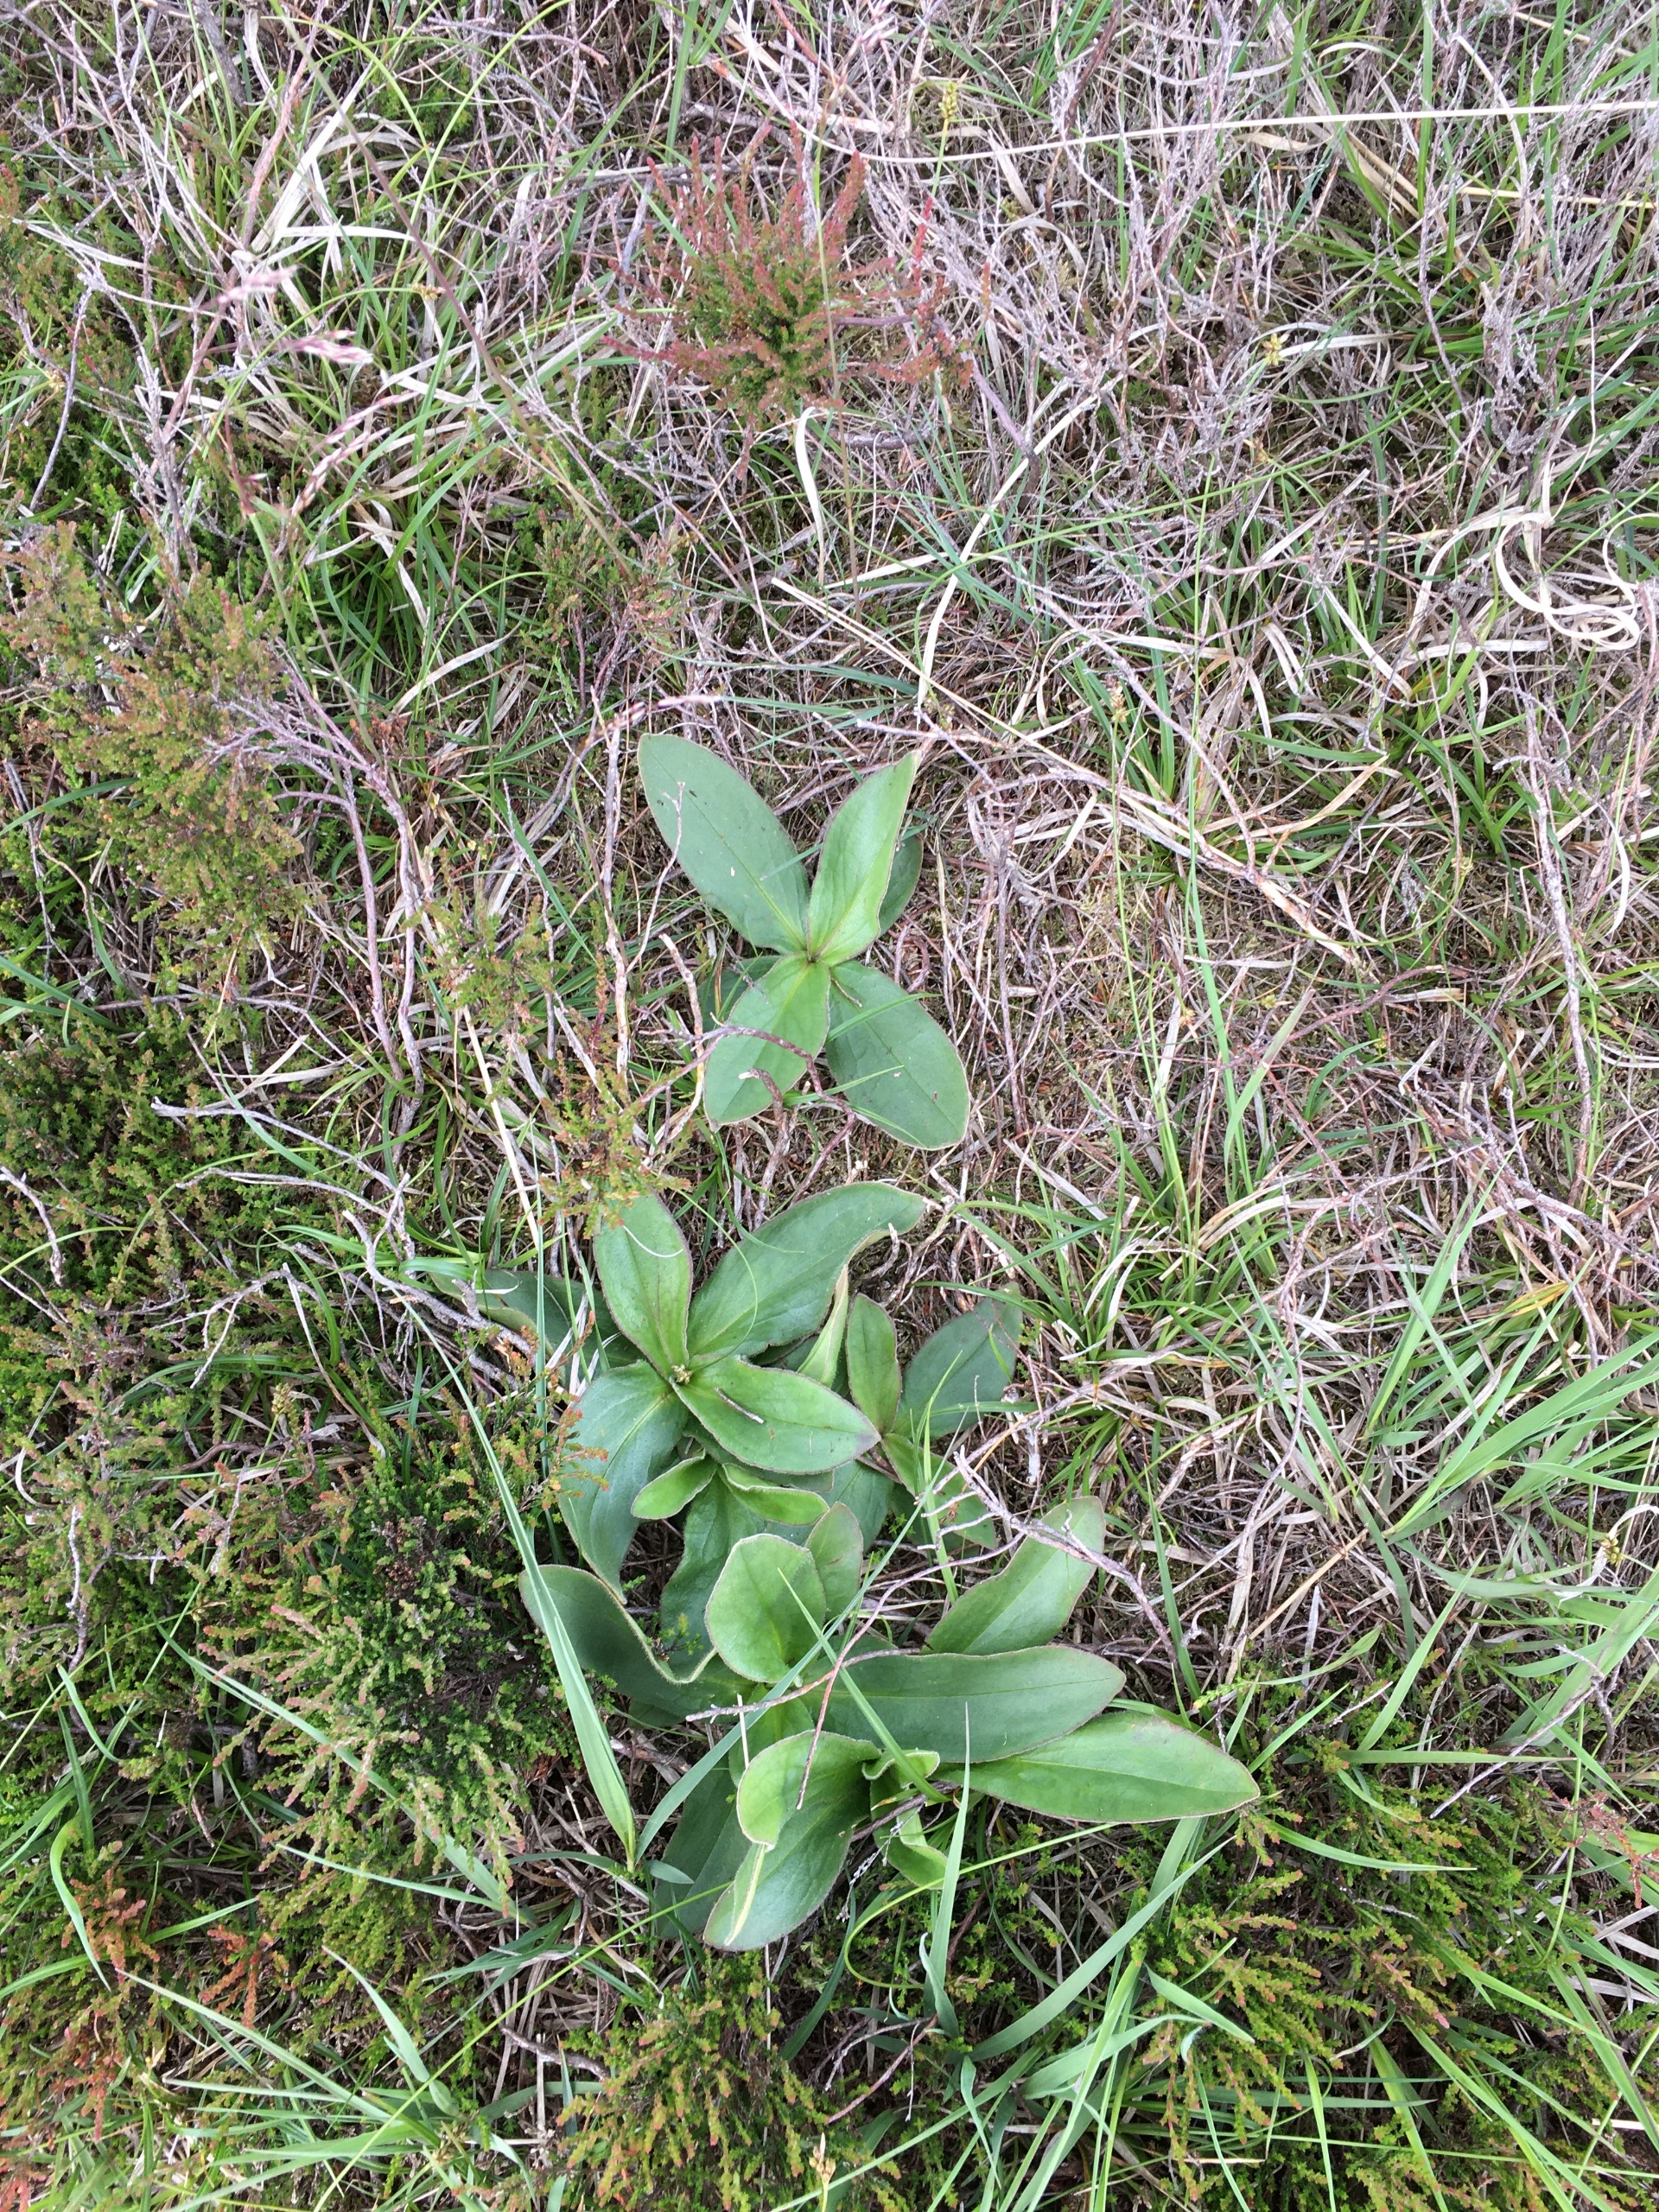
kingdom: Plantae
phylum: Tracheophyta
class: Magnoliopsida
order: Asterales
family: Asteraceae
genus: Arnica
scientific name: Arnica montana
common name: Guldblomme
